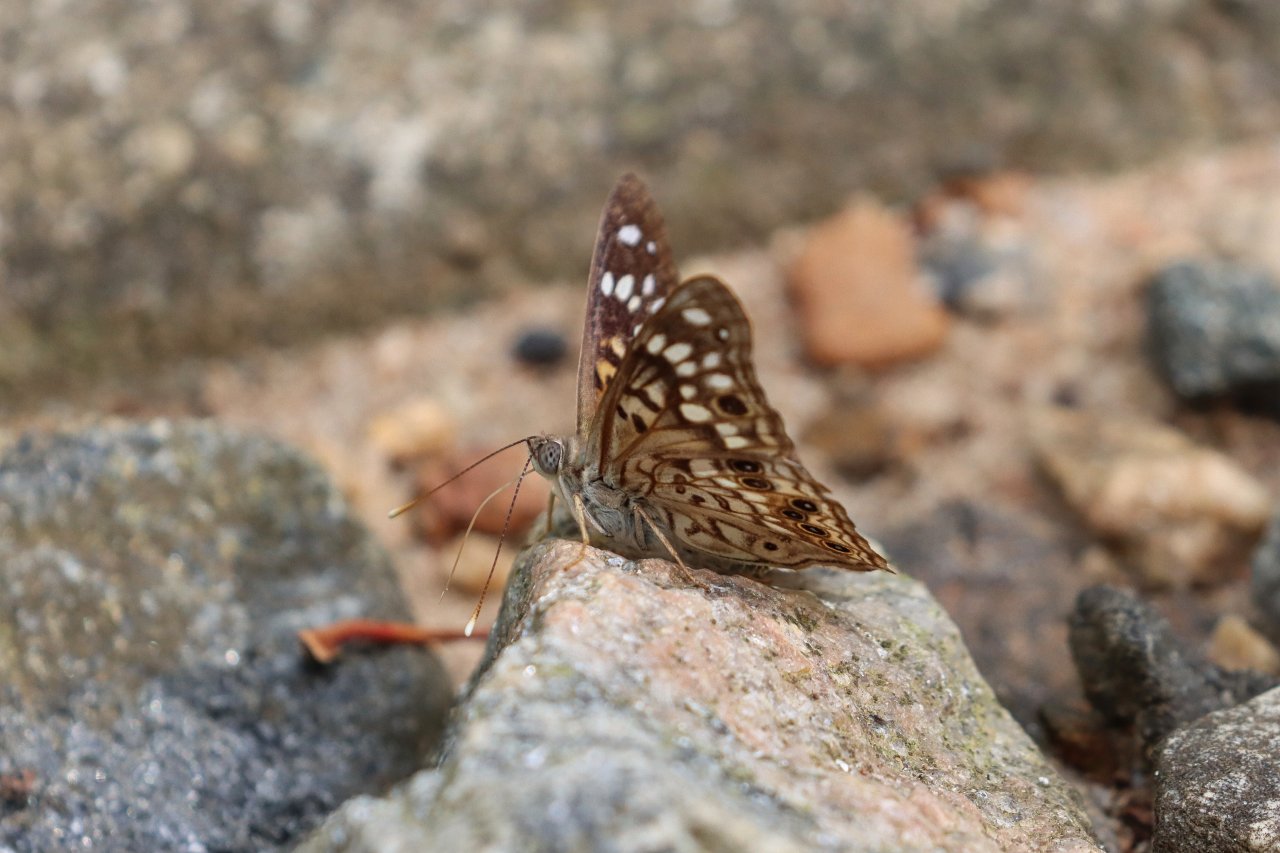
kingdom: Animalia
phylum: Arthropoda
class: Insecta
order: Lepidoptera
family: Nymphalidae
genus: Asterocampa
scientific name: Asterocampa celtis
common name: Hackberry Emperor
